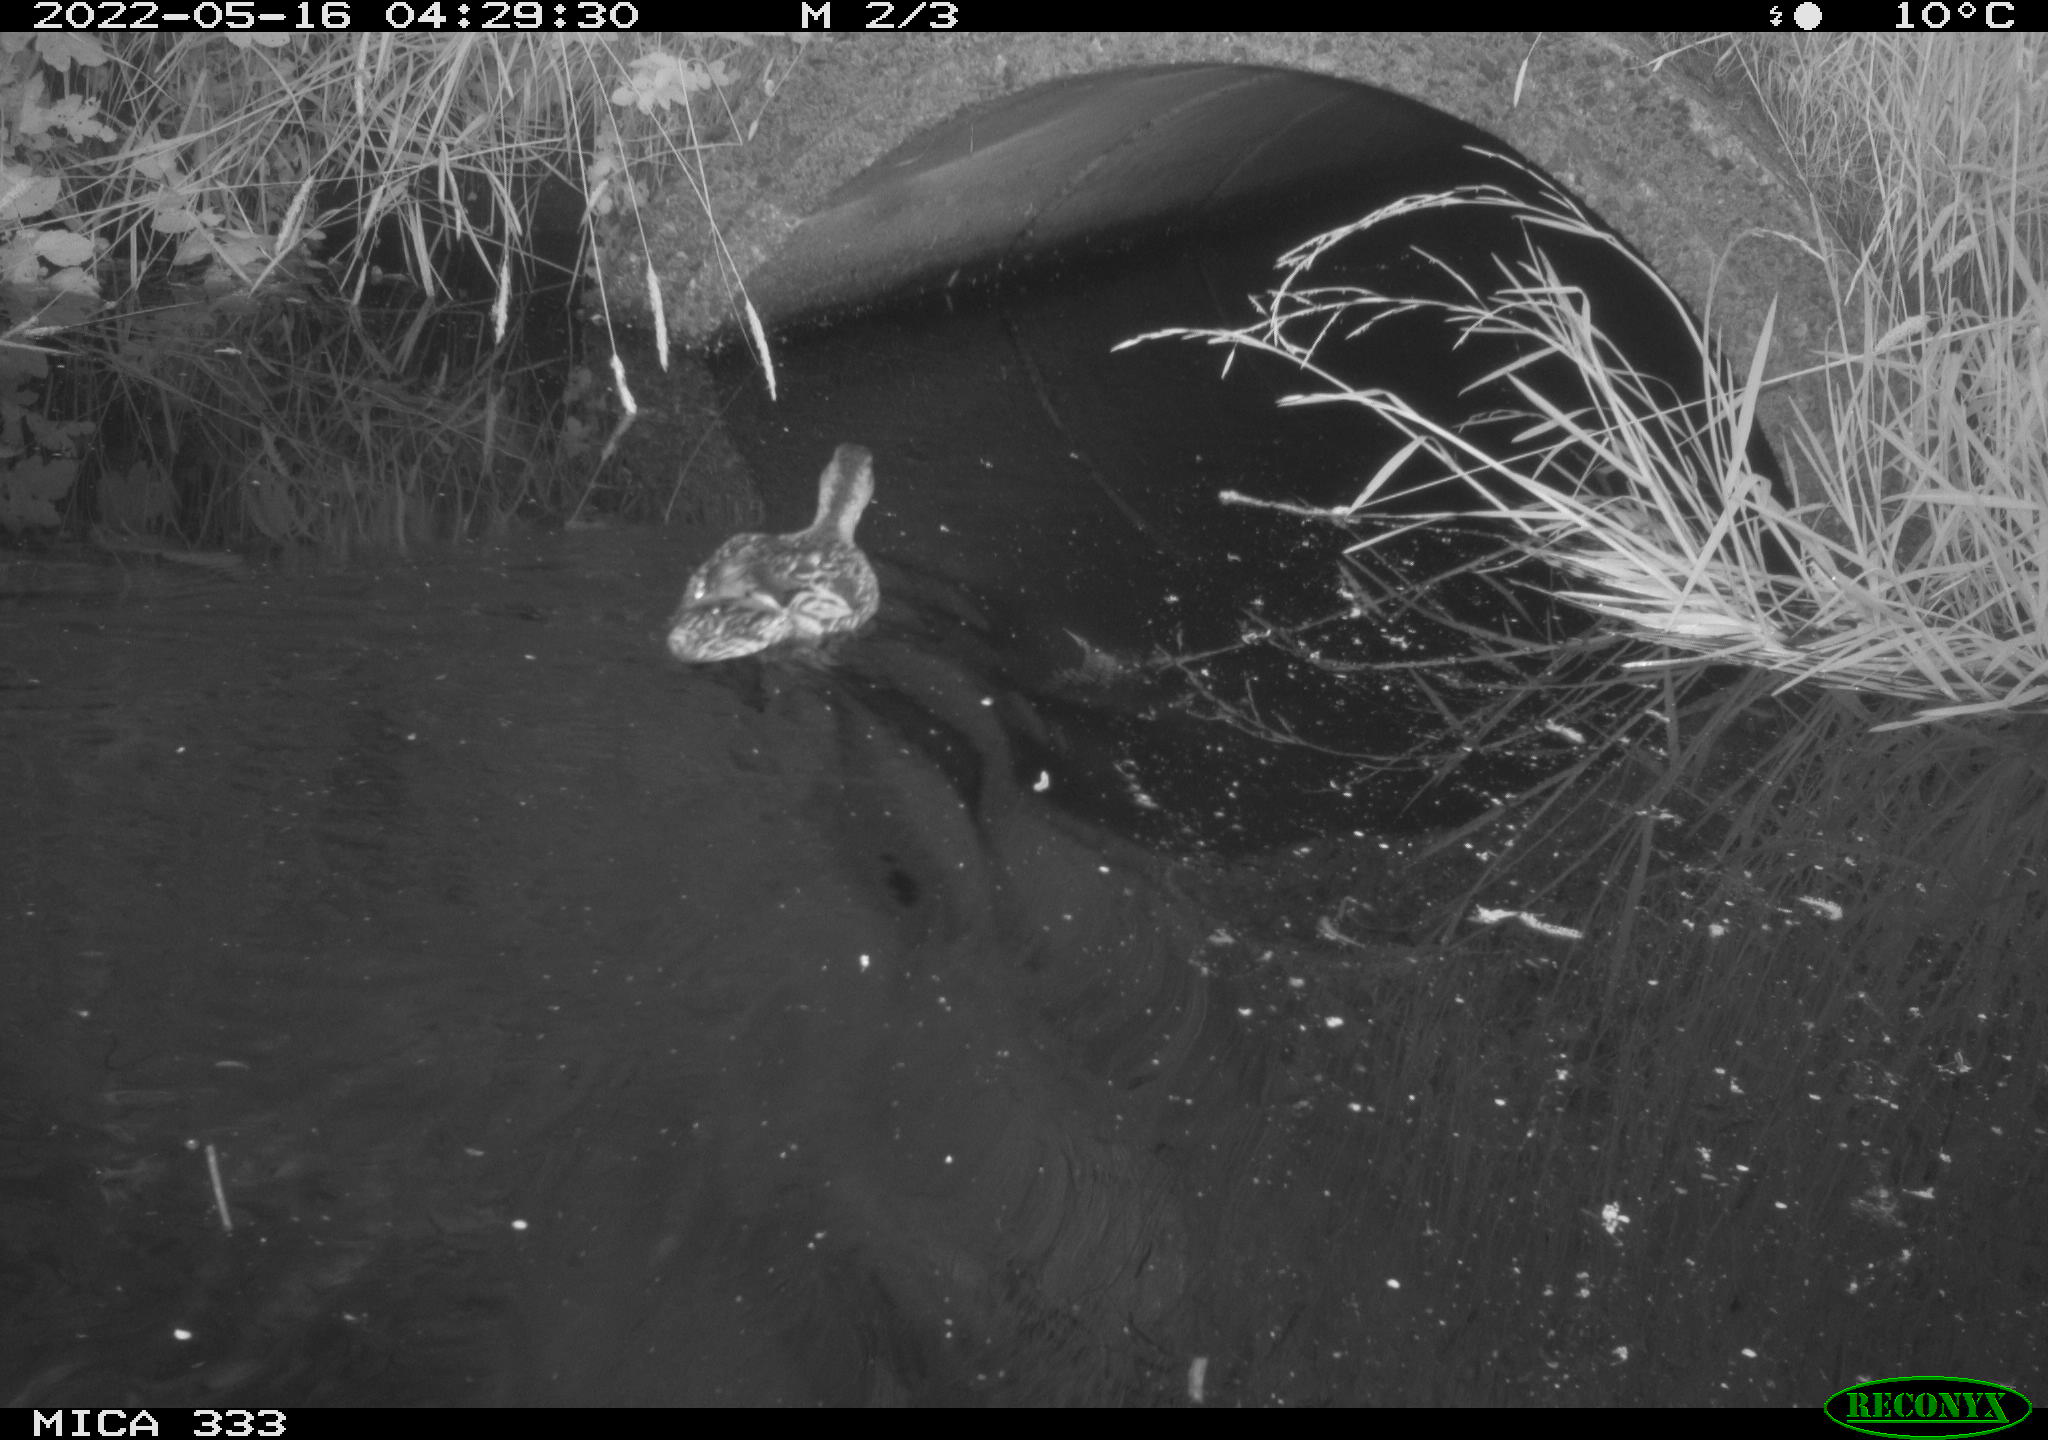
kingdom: Animalia
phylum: Chordata
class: Aves
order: Anseriformes
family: Anatidae
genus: Anas
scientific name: Anas platyrhynchos
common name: Mallard
